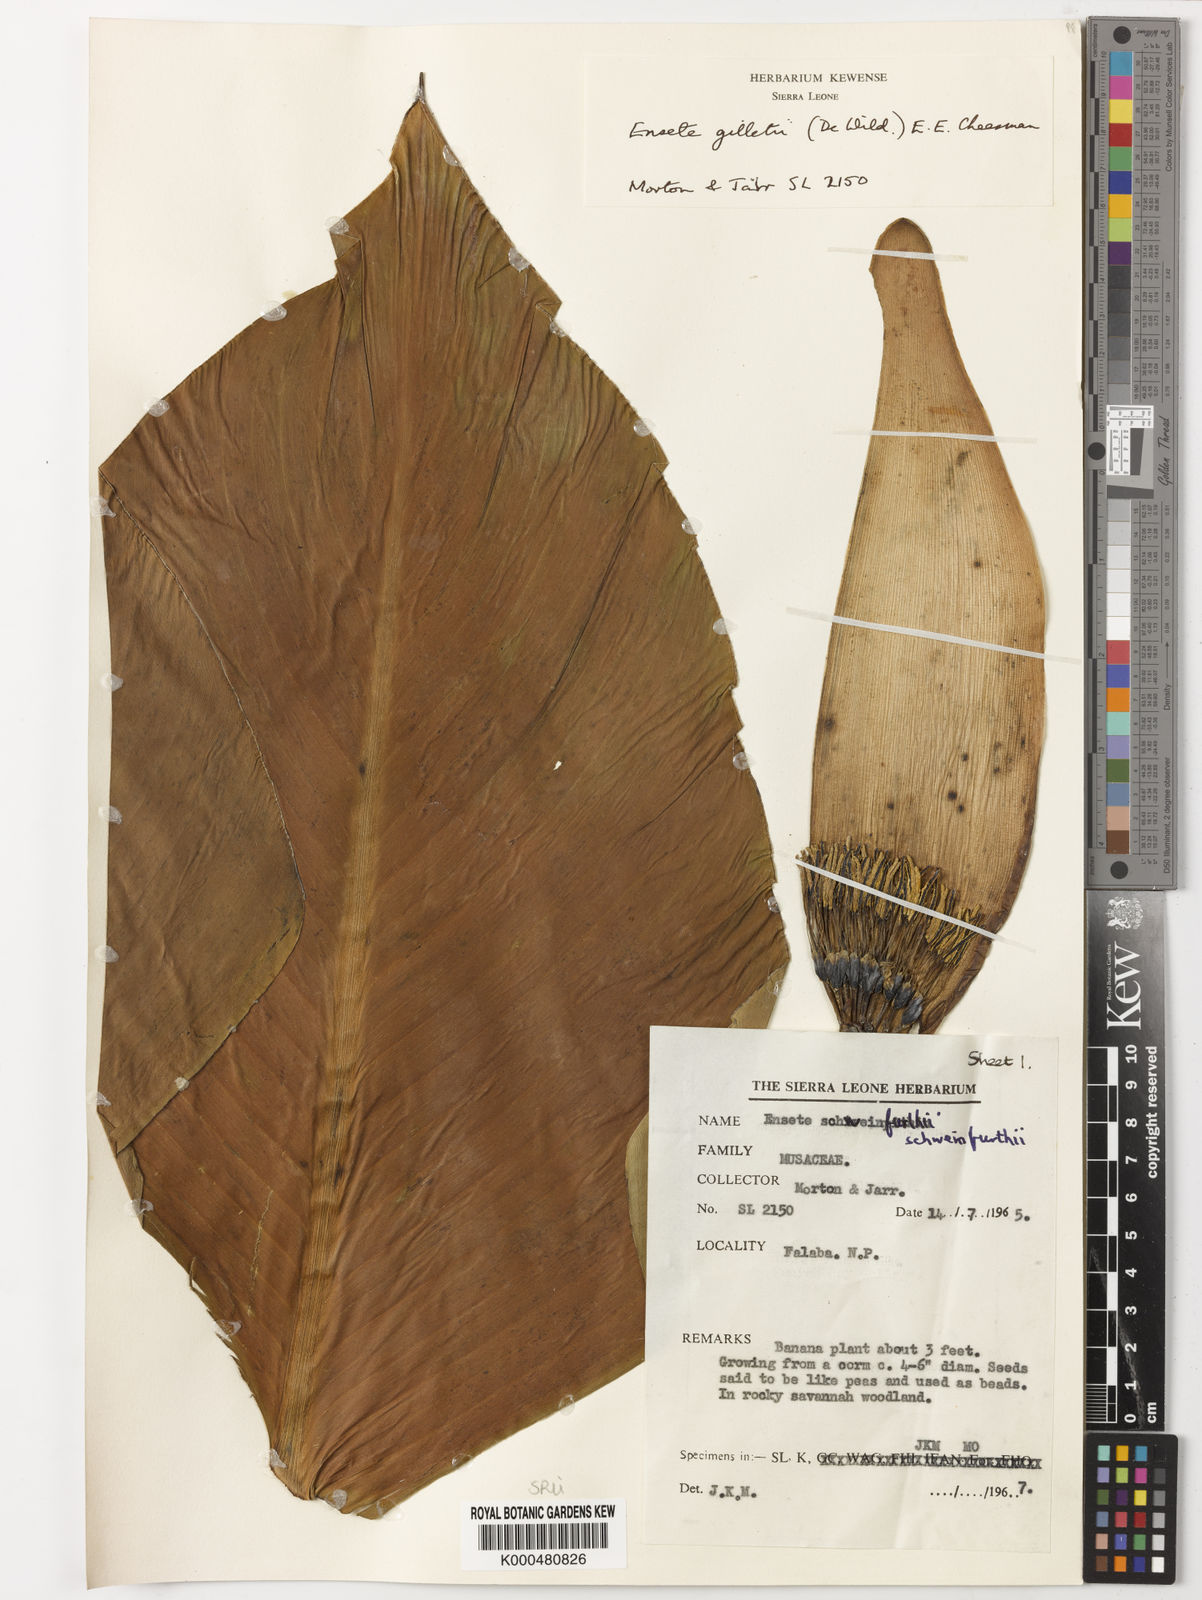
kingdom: Plantae
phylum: Tracheophyta
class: Liliopsida
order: Zingiberales
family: Musaceae
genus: Ensete
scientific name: Ensete livingstonianum
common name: Livingston's banana
